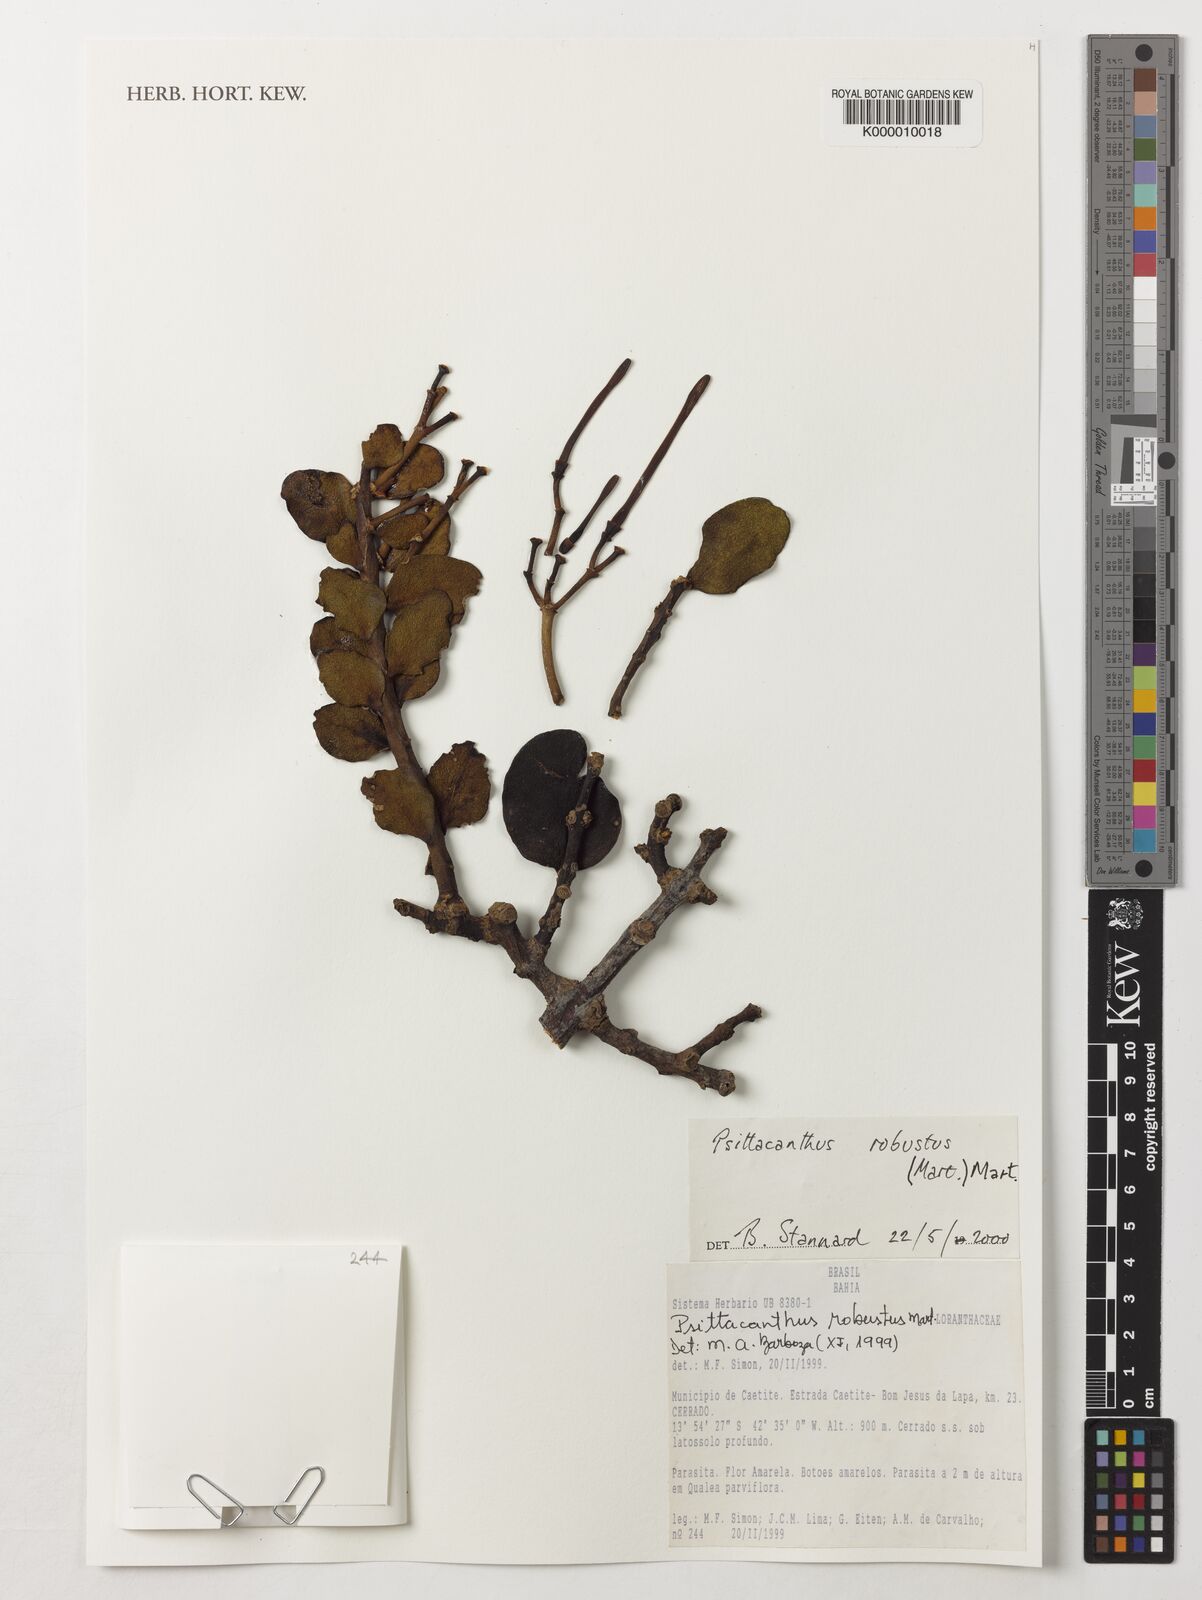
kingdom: Plantae
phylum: Tracheophyta
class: Magnoliopsida
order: Santalales
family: Loranthaceae
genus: Psittacanthus
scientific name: Psittacanthus robustus
